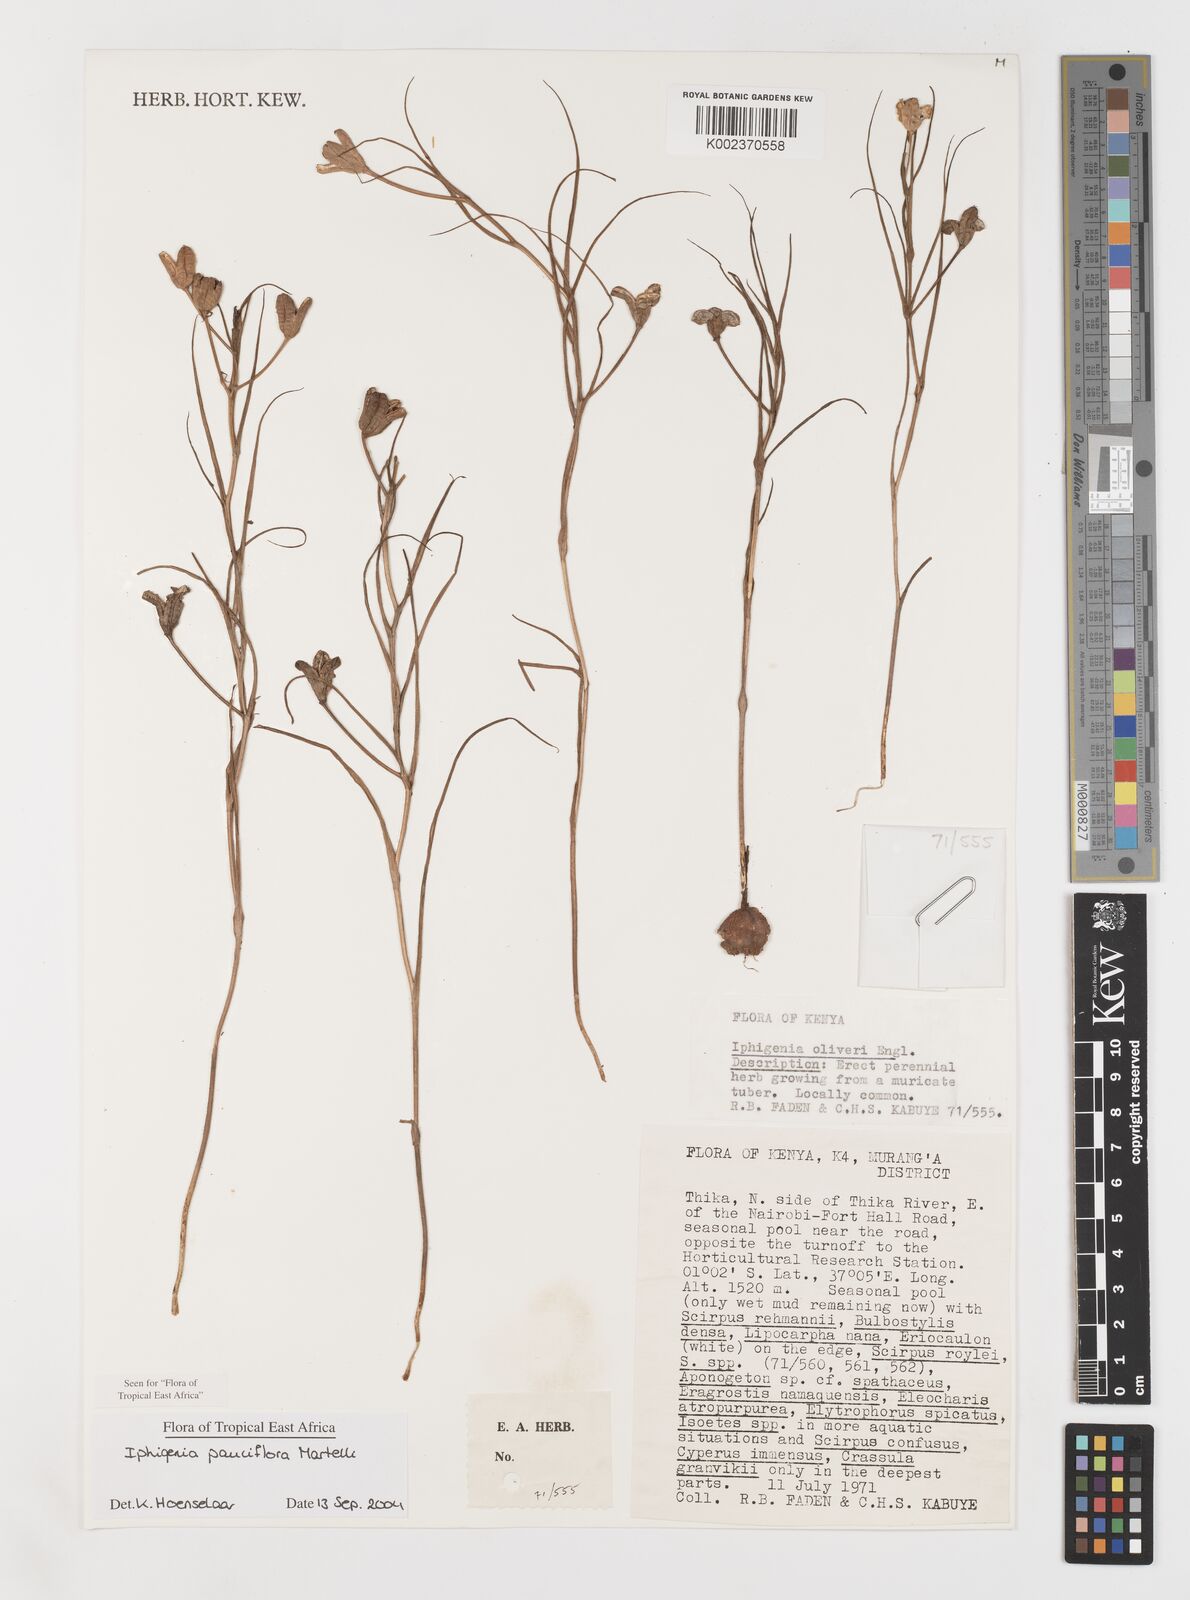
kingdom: Plantae
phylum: Tracheophyta
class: Liliopsida
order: Liliales
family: Colchicaceae
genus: Iphigenia
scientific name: Iphigenia pauciflora
